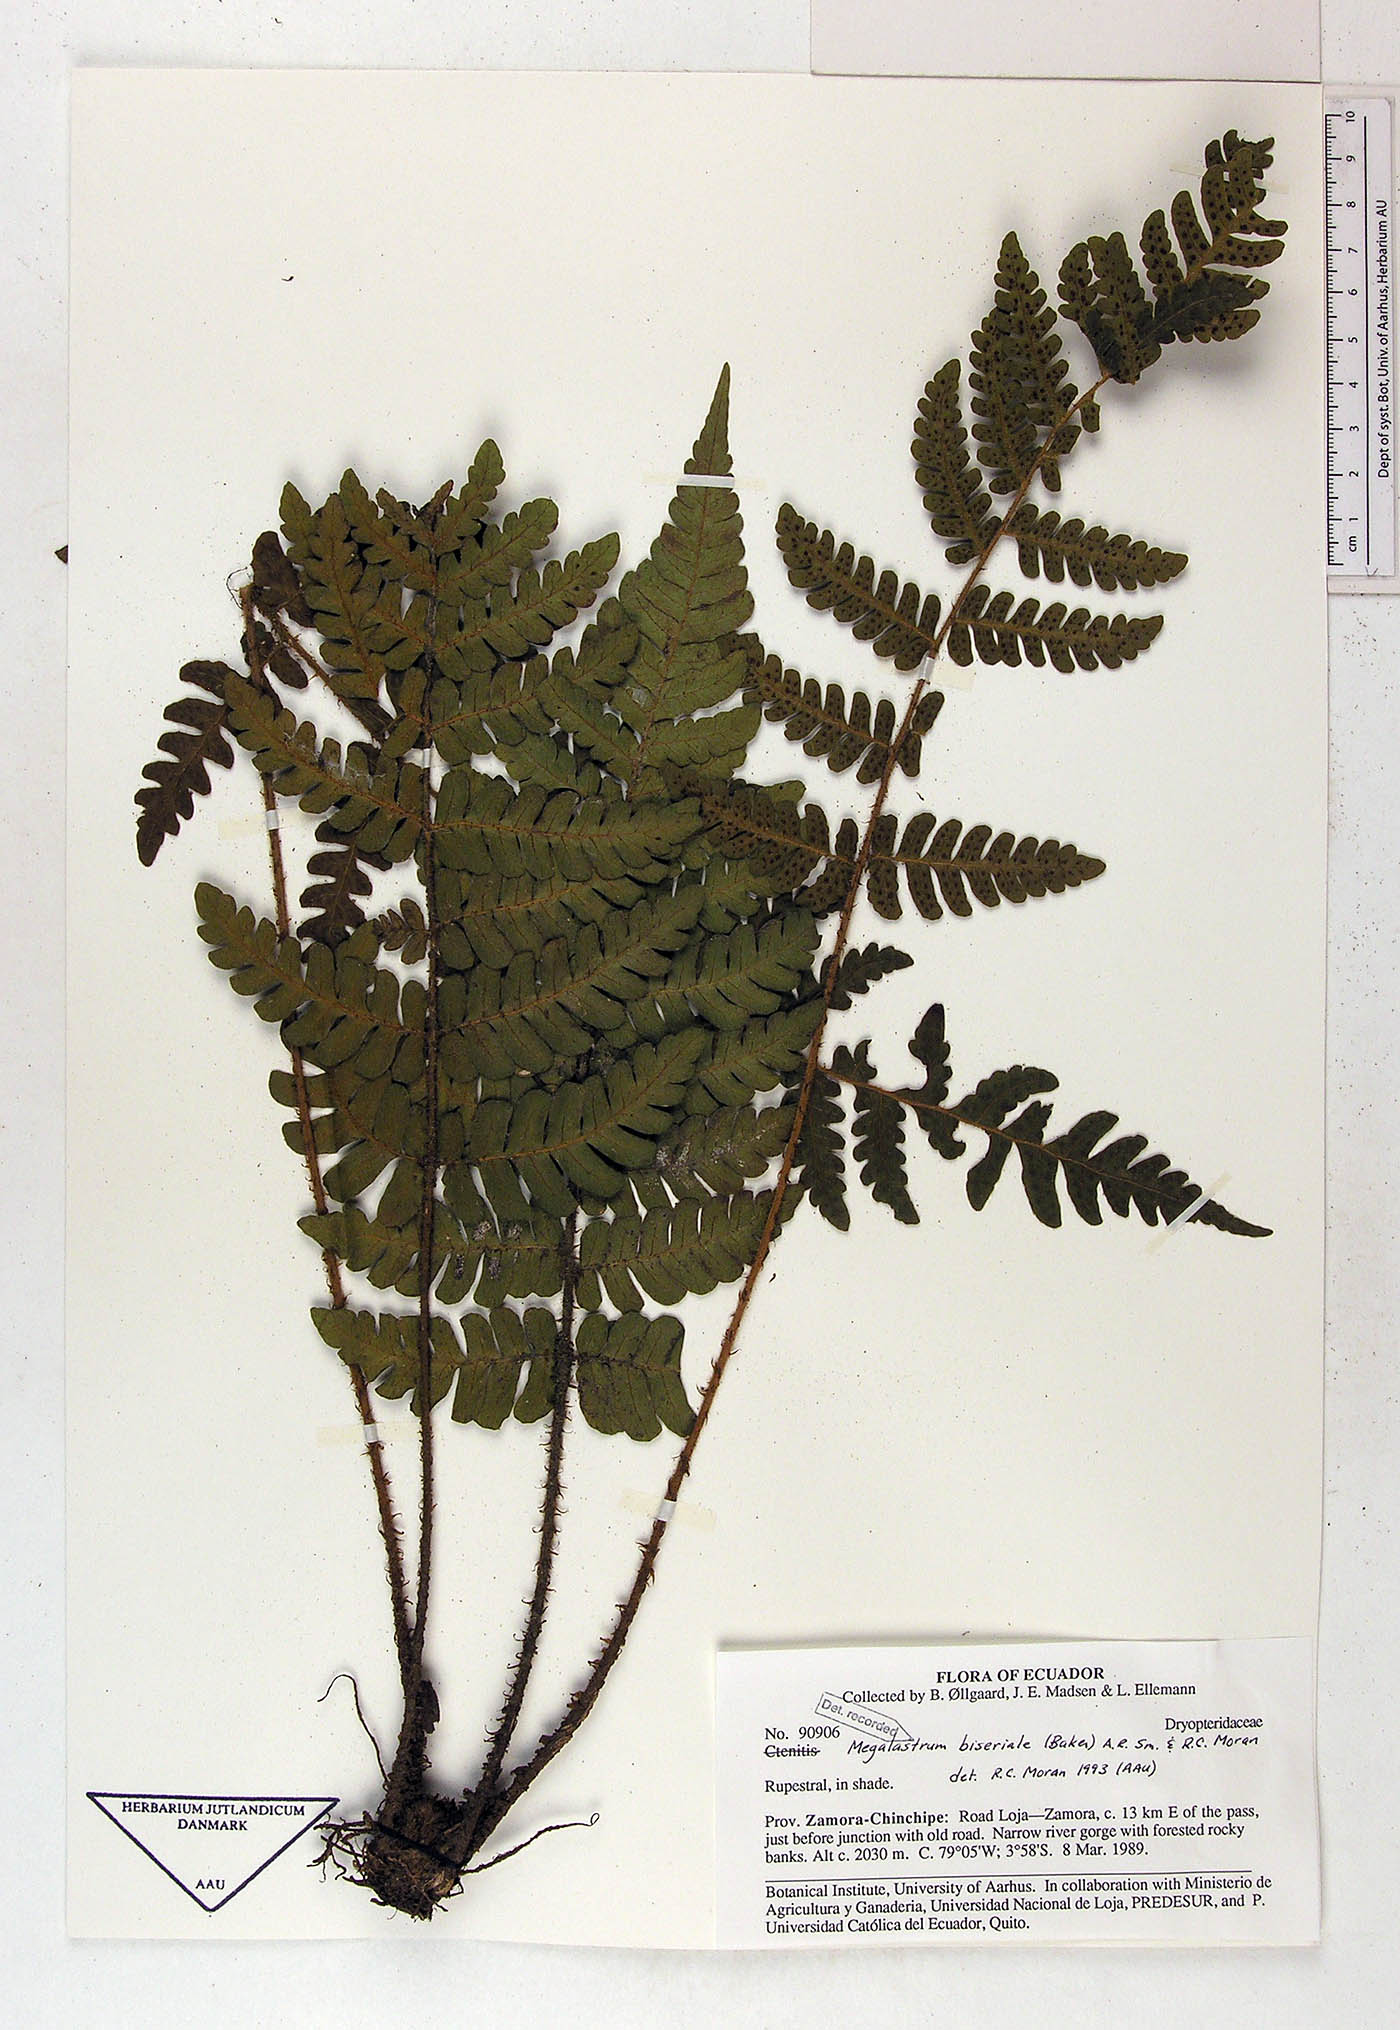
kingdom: Plantae
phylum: Tracheophyta
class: Polypodiopsida
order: Polypodiales
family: Dryopteridaceae
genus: Megalastrum
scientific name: Megalastrum bolivianum
